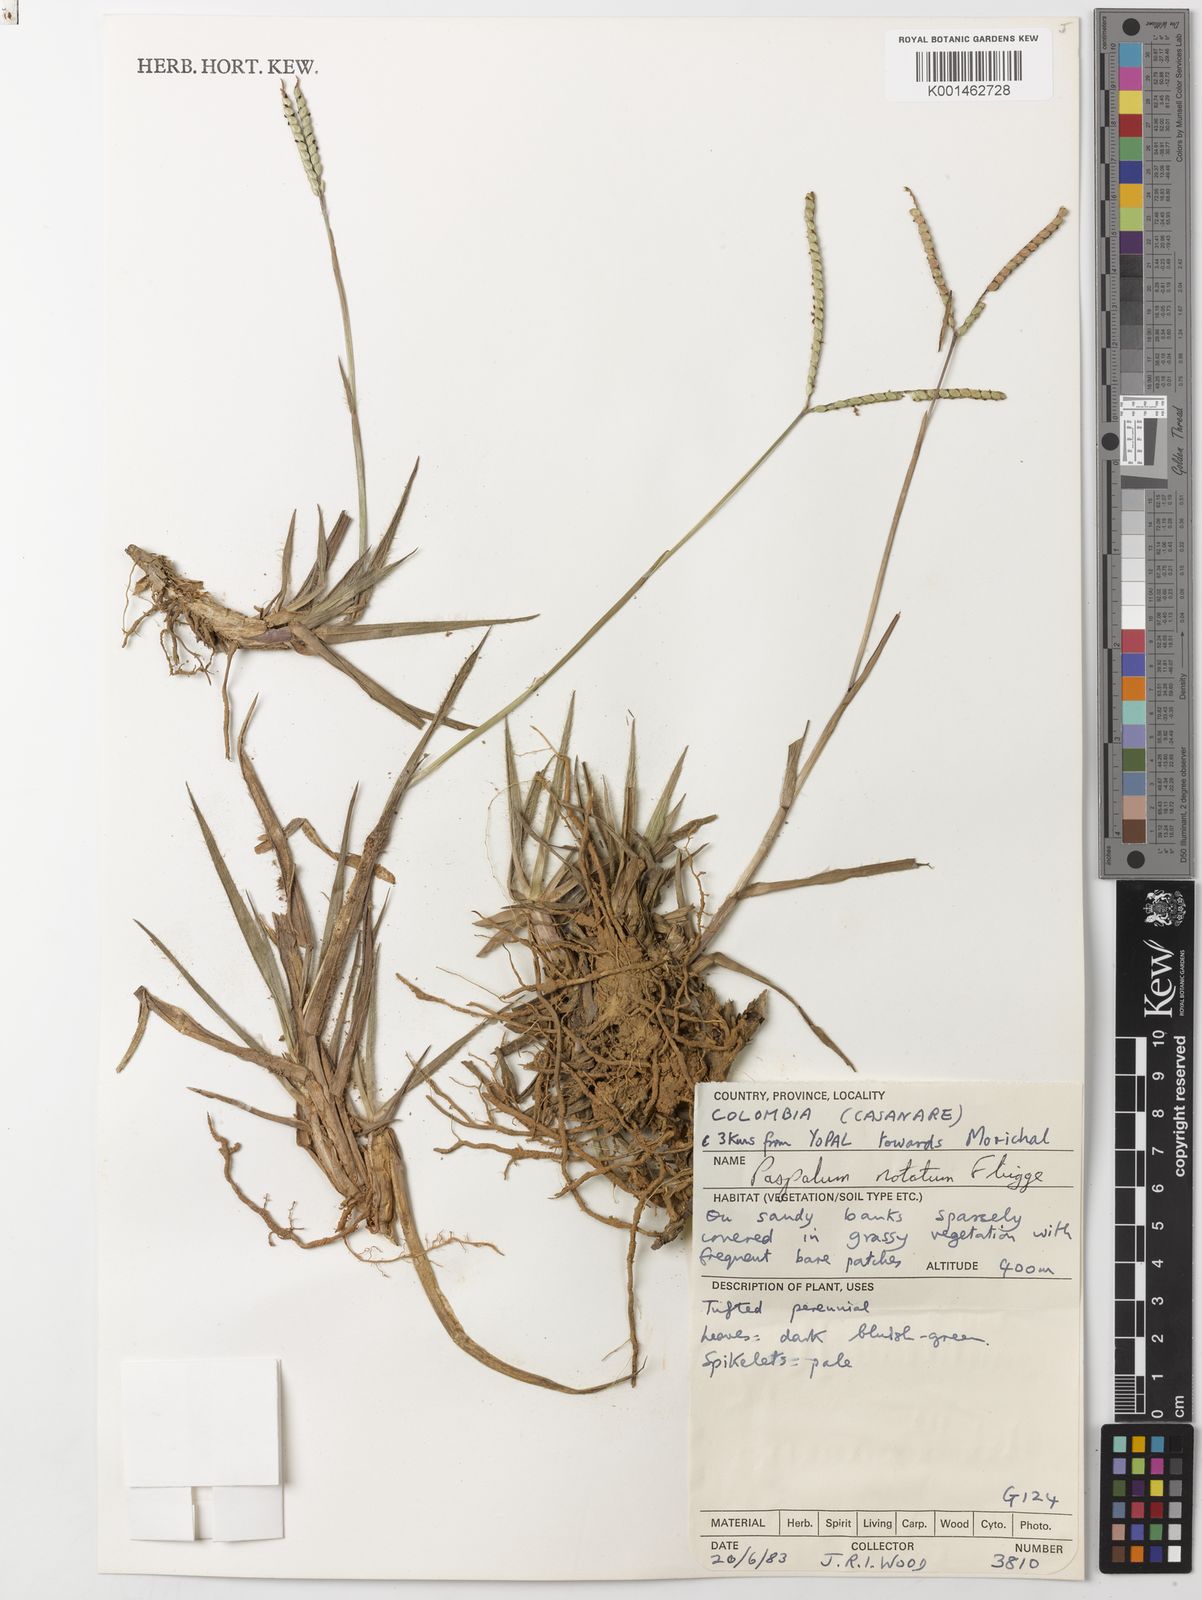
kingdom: Plantae
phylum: Tracheophyta
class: Liliopsida
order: Poales
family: Poaceae
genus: Paspalum
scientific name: Paspalum
